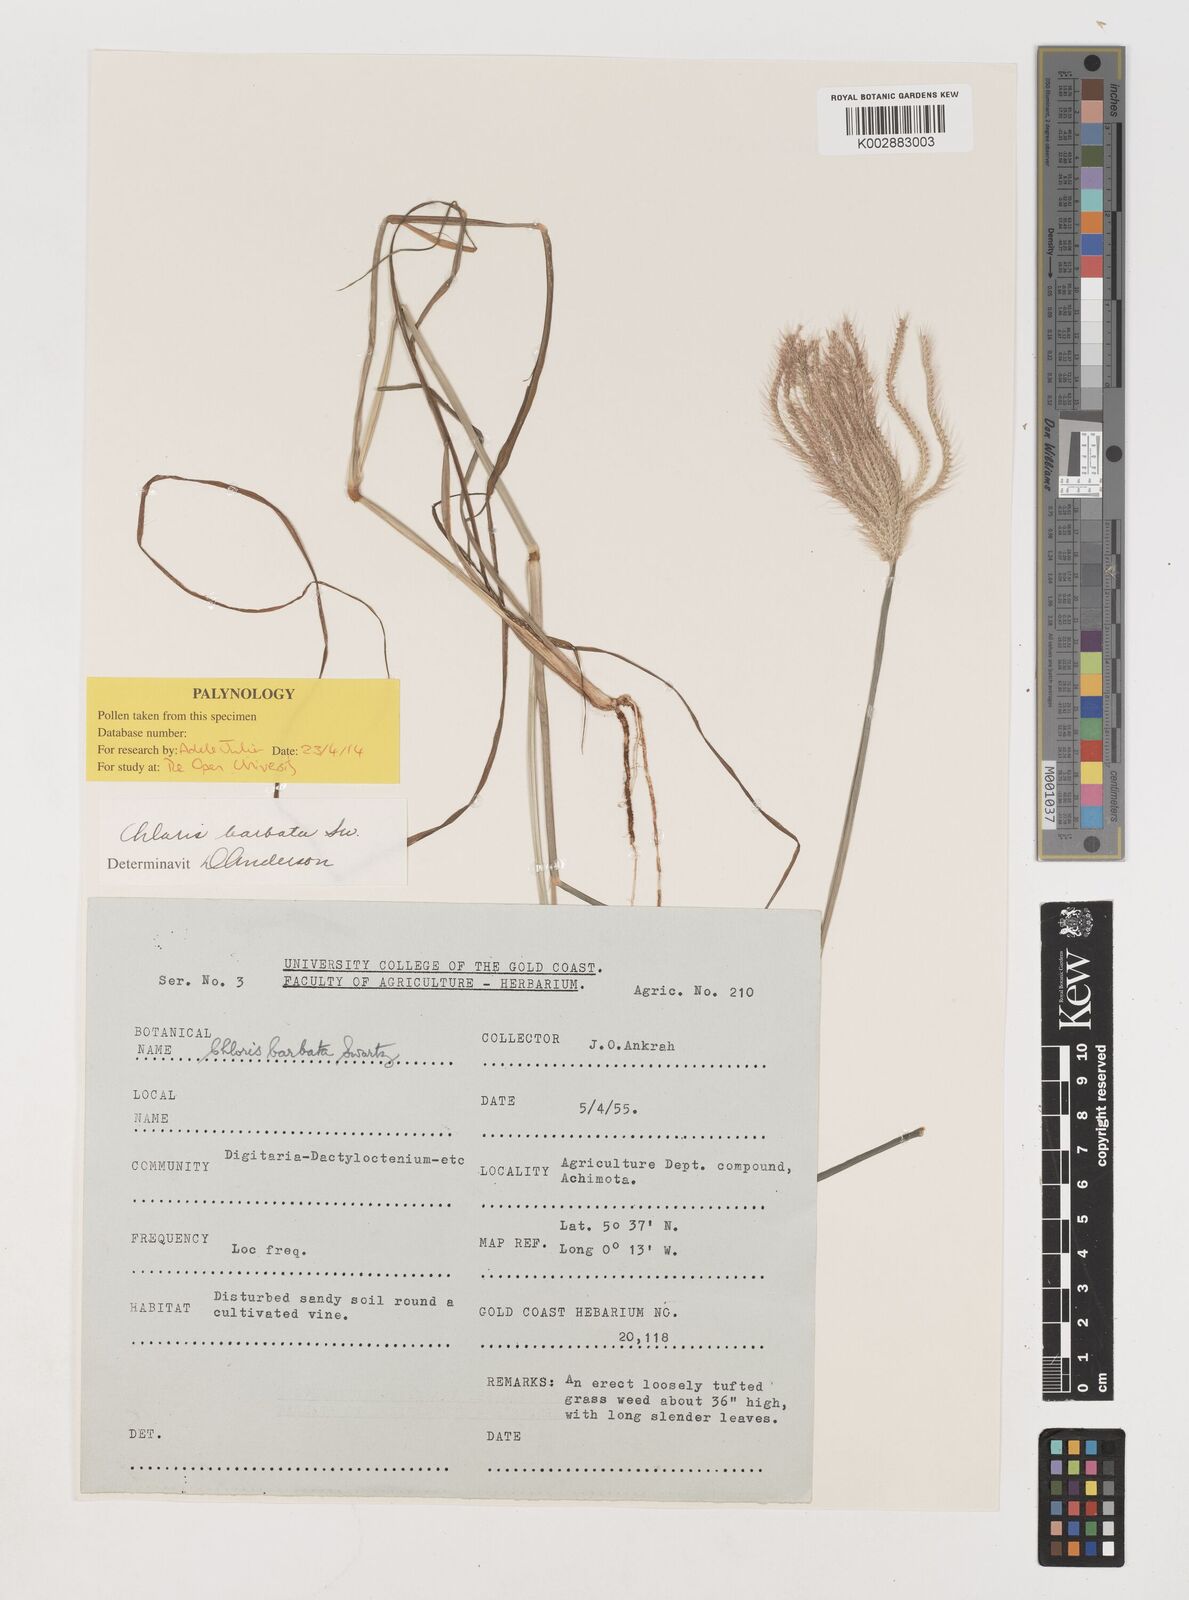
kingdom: Plantae
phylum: Tracheophyta
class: Liliopsida
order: Poales
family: Poaceae
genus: Chloris
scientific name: Chloris barbata
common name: Swollen fingergrass
